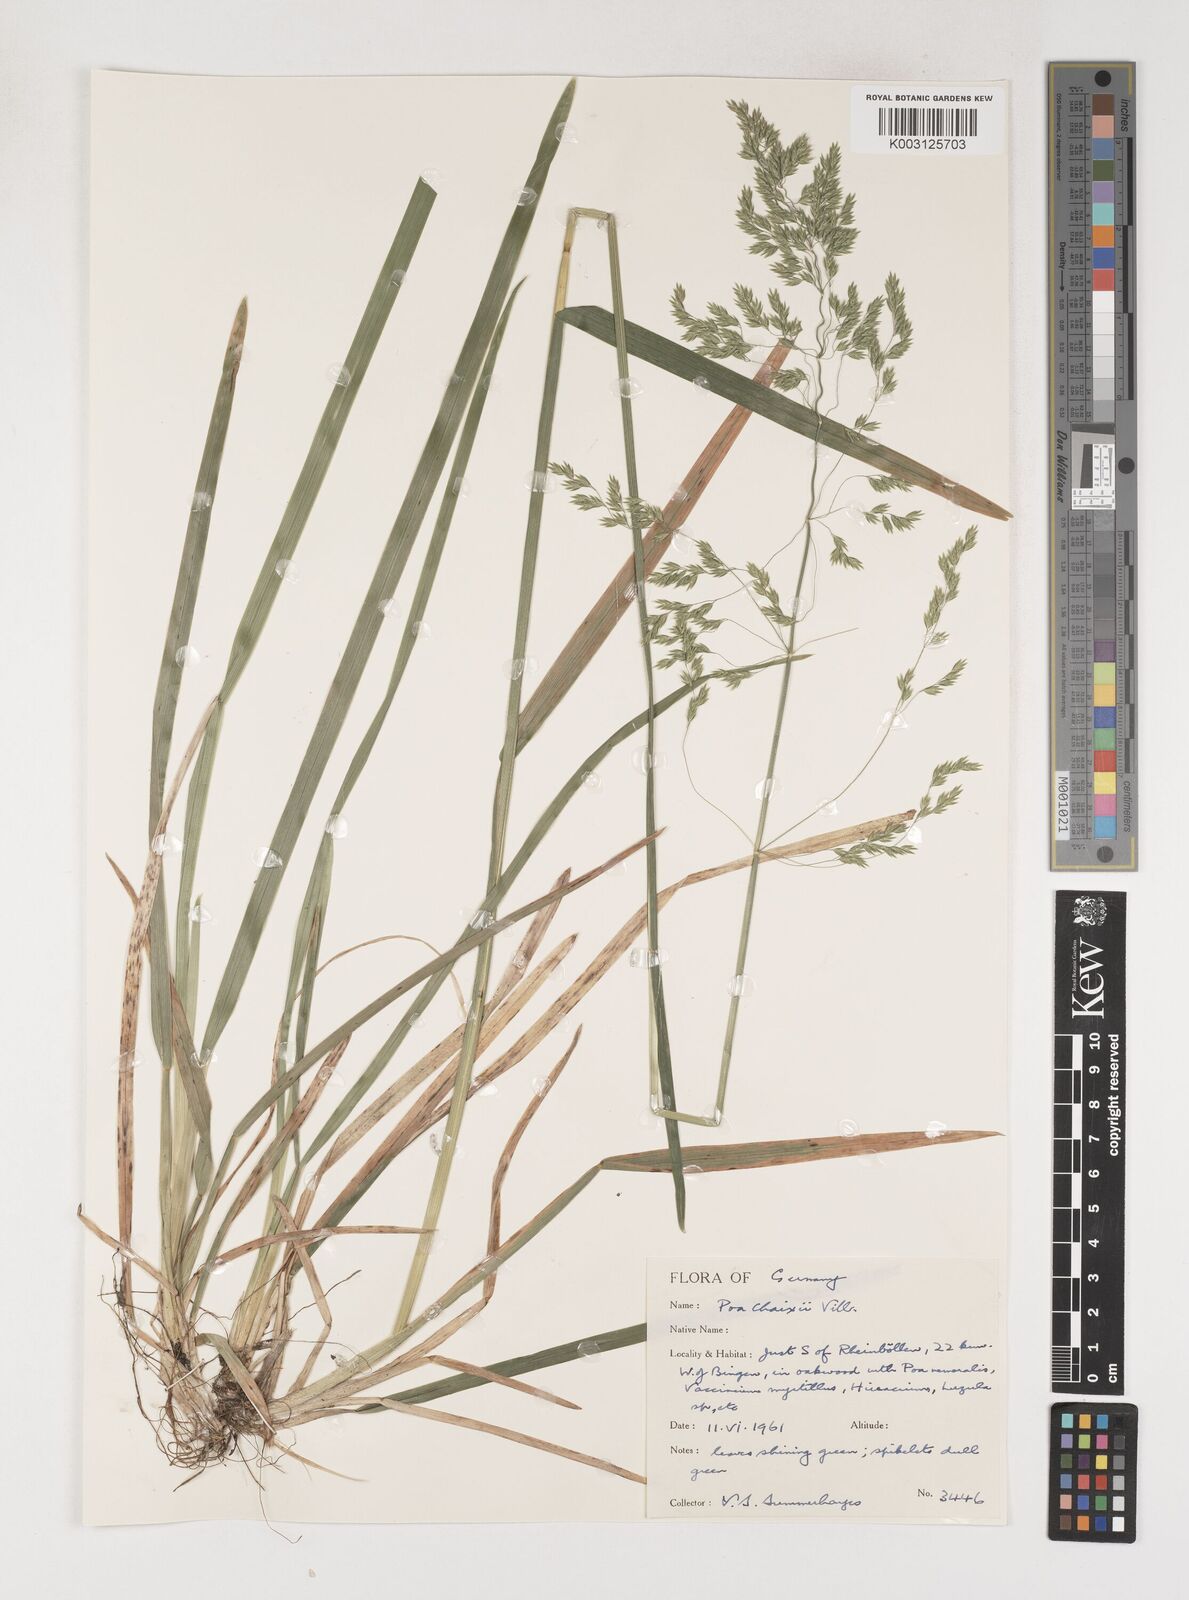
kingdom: Plantae
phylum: Tracheophyta
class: Liliopsida
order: Poales
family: Poaceae
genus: Poa
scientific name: Poa chaixii
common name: Broad-leaved meadow-grass
